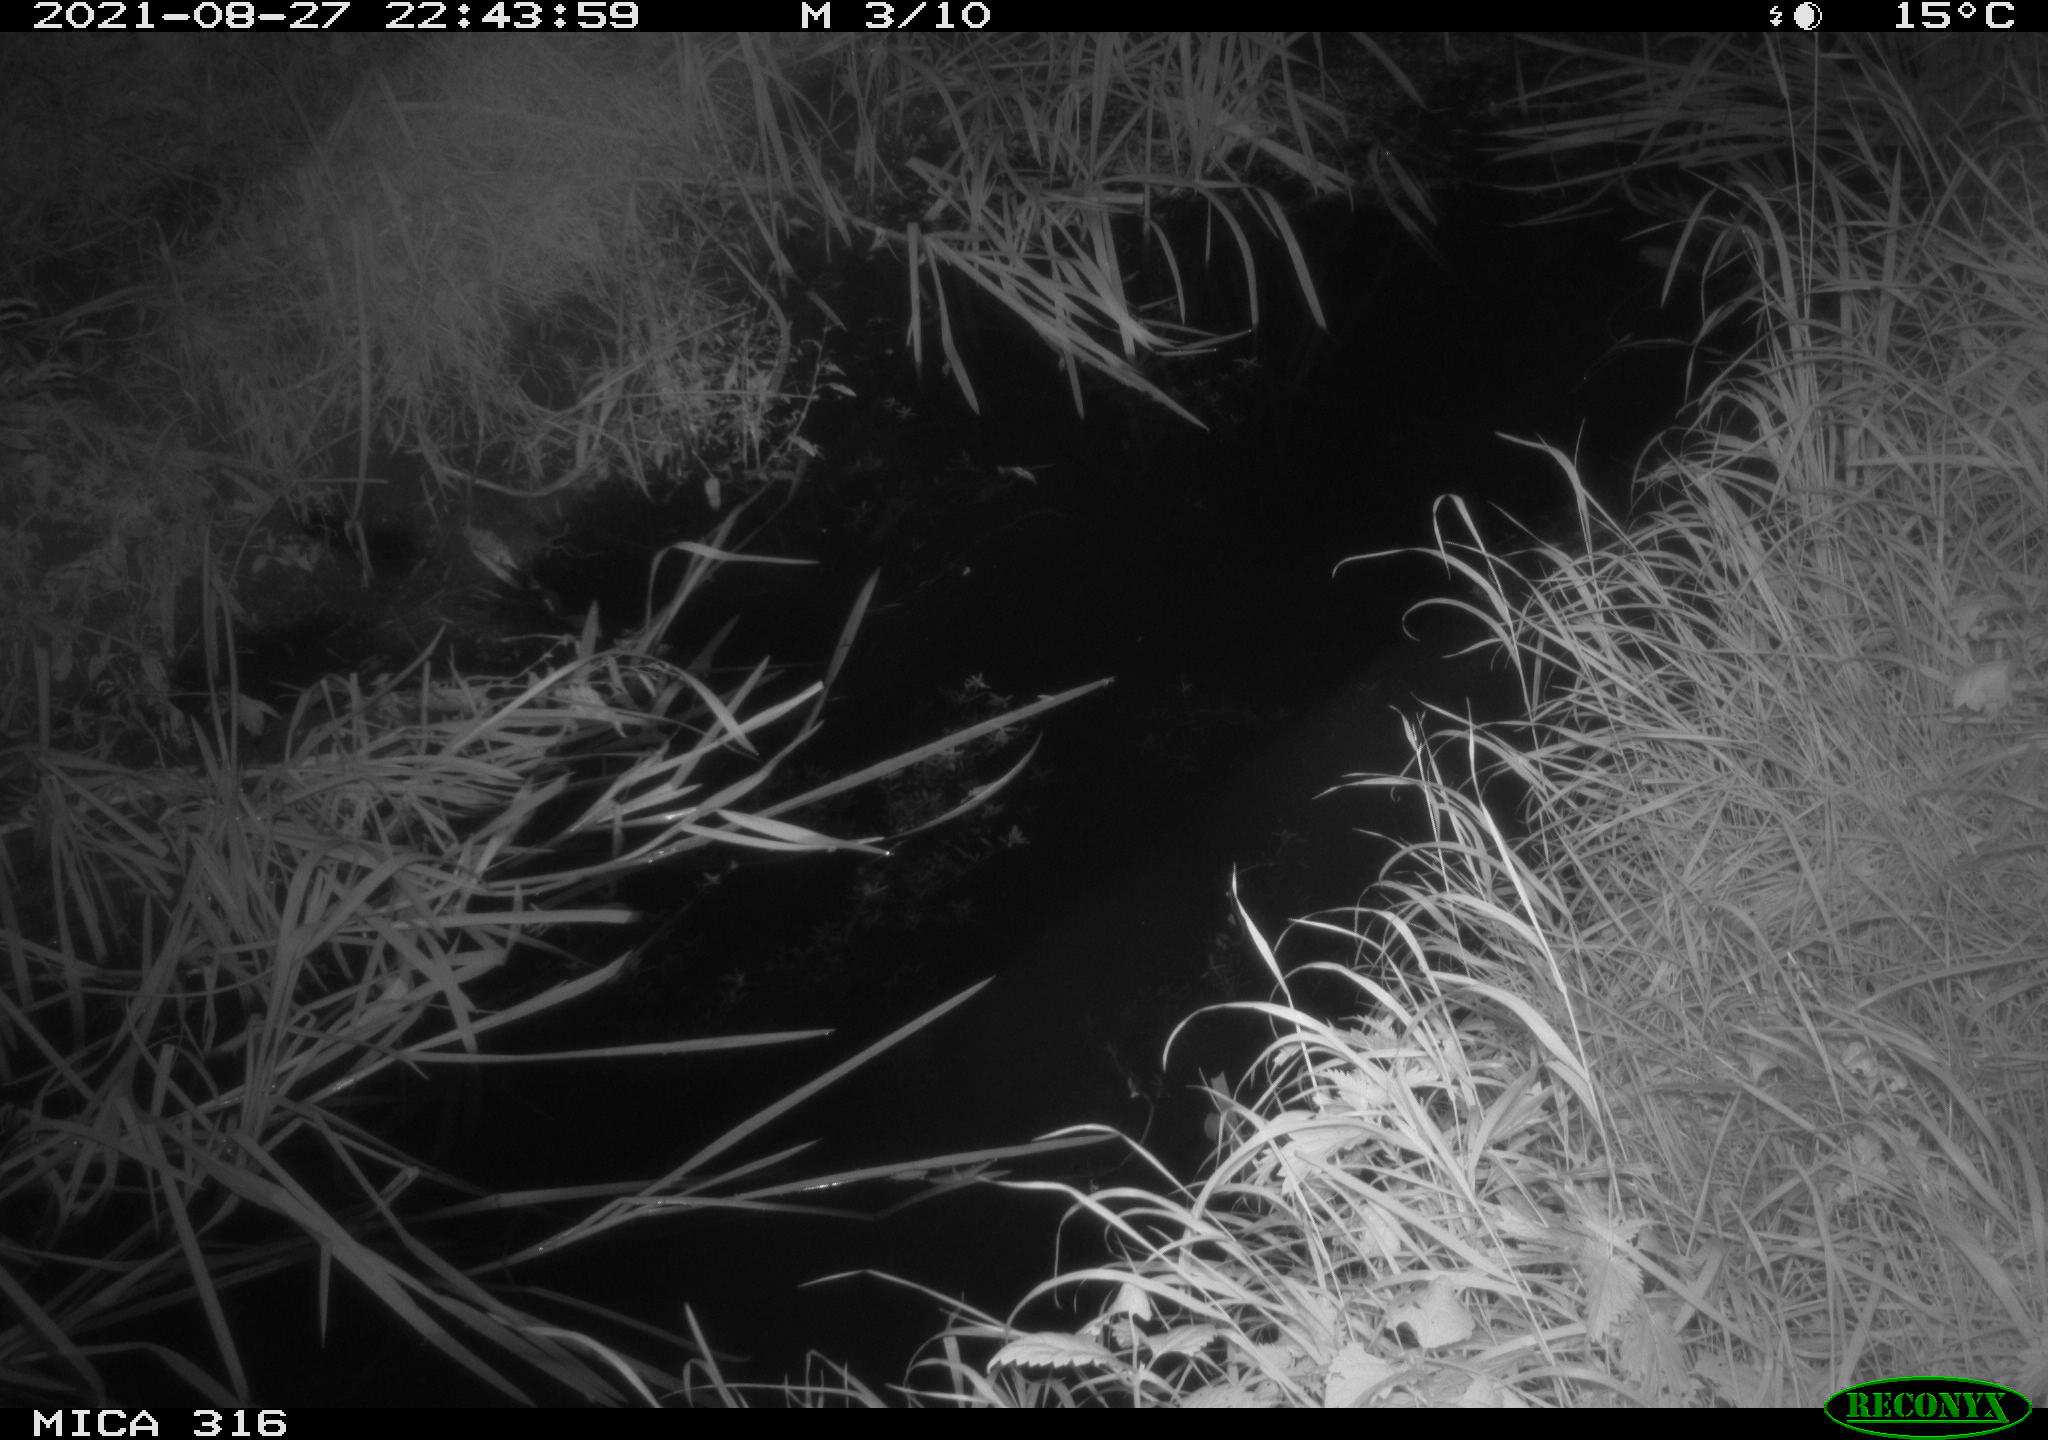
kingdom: Animalia
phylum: Chordata
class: Mammalia
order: Rodentia
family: Muridae
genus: Rattus
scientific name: Rattus norvegicus
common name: Brown rat
